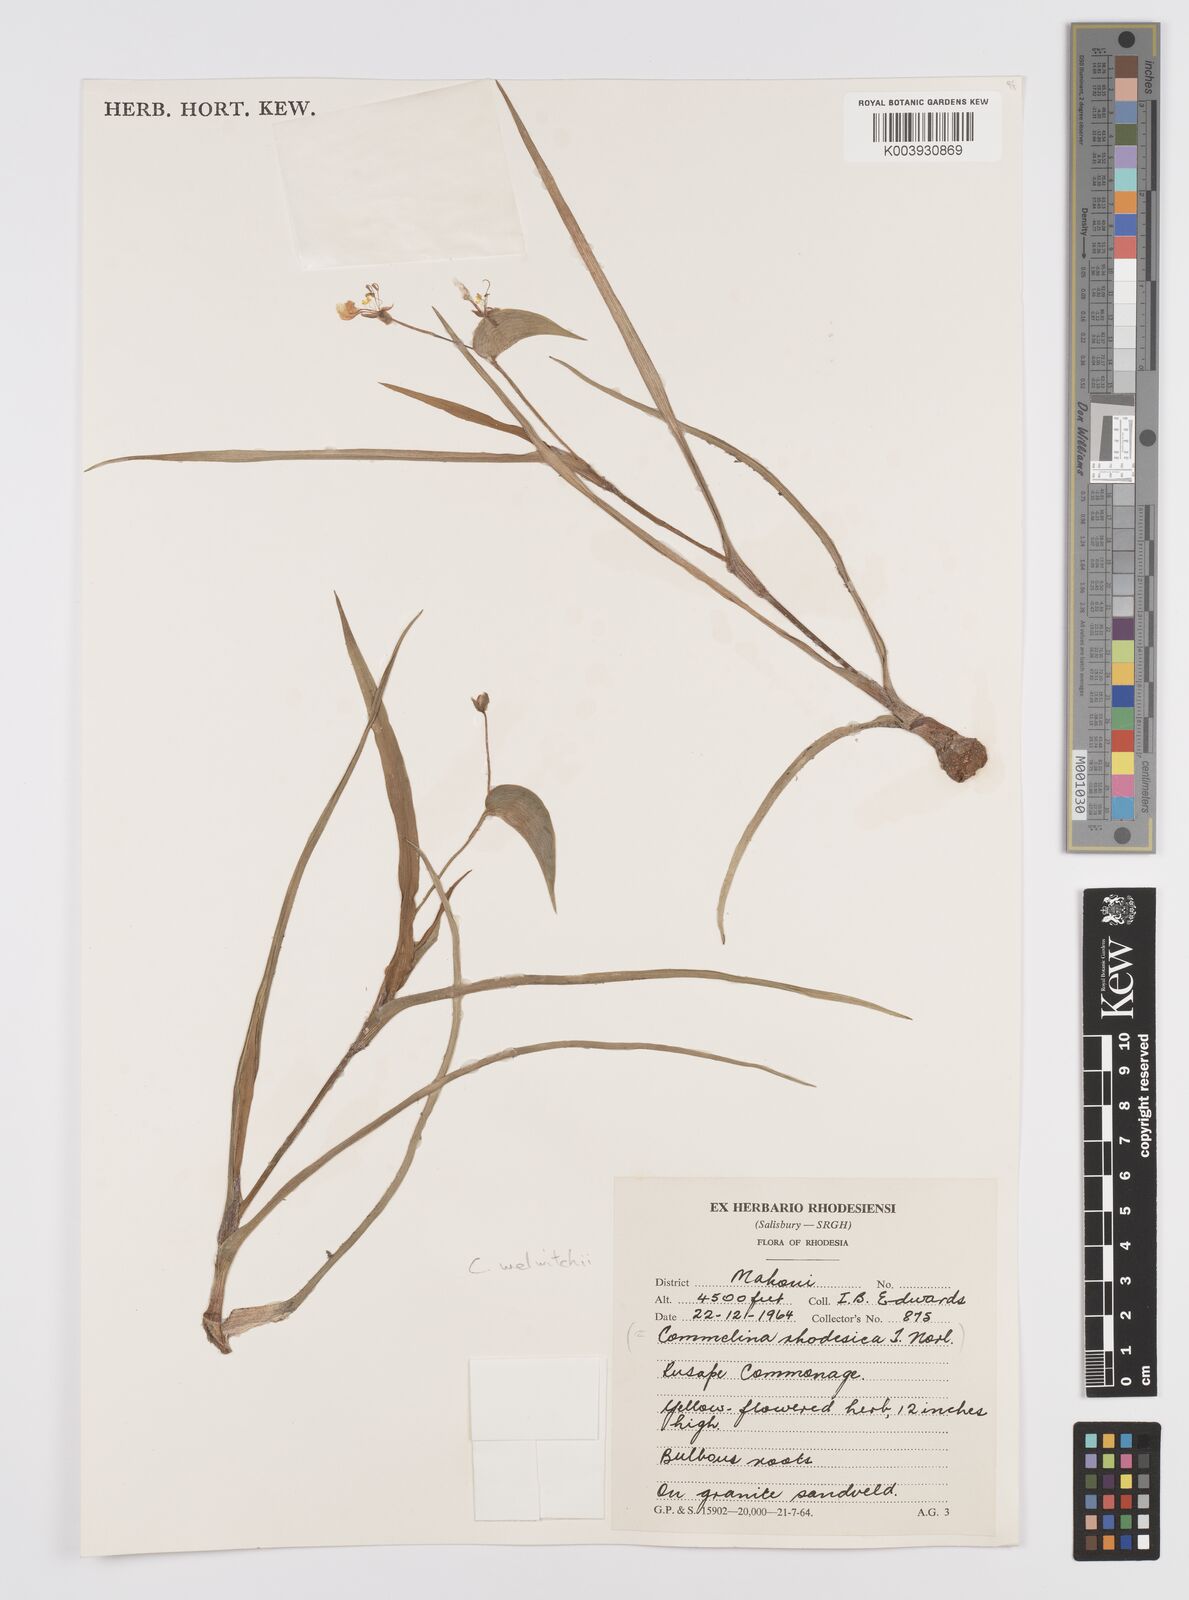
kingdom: Plantae
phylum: Tracheophyta
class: Liliopsida
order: Commelinales
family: Commelinaceae
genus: Commelina
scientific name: Commelina welwitschii
